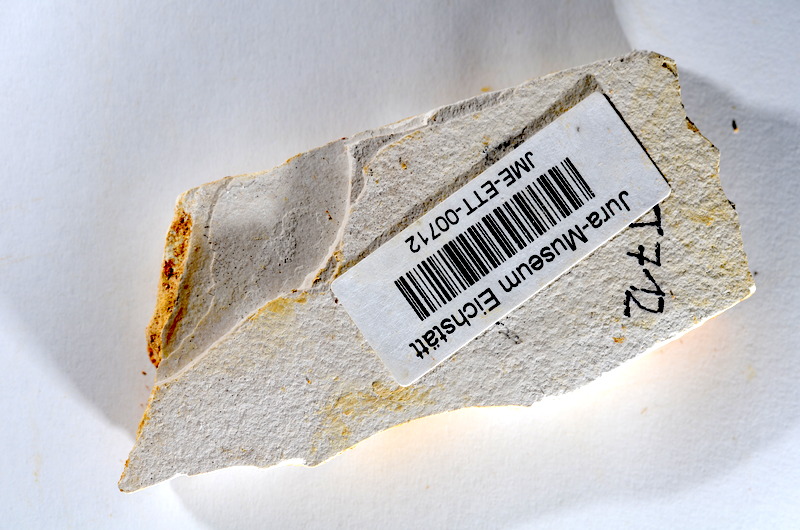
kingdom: Animalia
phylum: Chordata
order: Salmoniformes
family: Orthogonikleithridae
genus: Orthogonikleithrus
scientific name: Orthogonikleithrus hoelli
